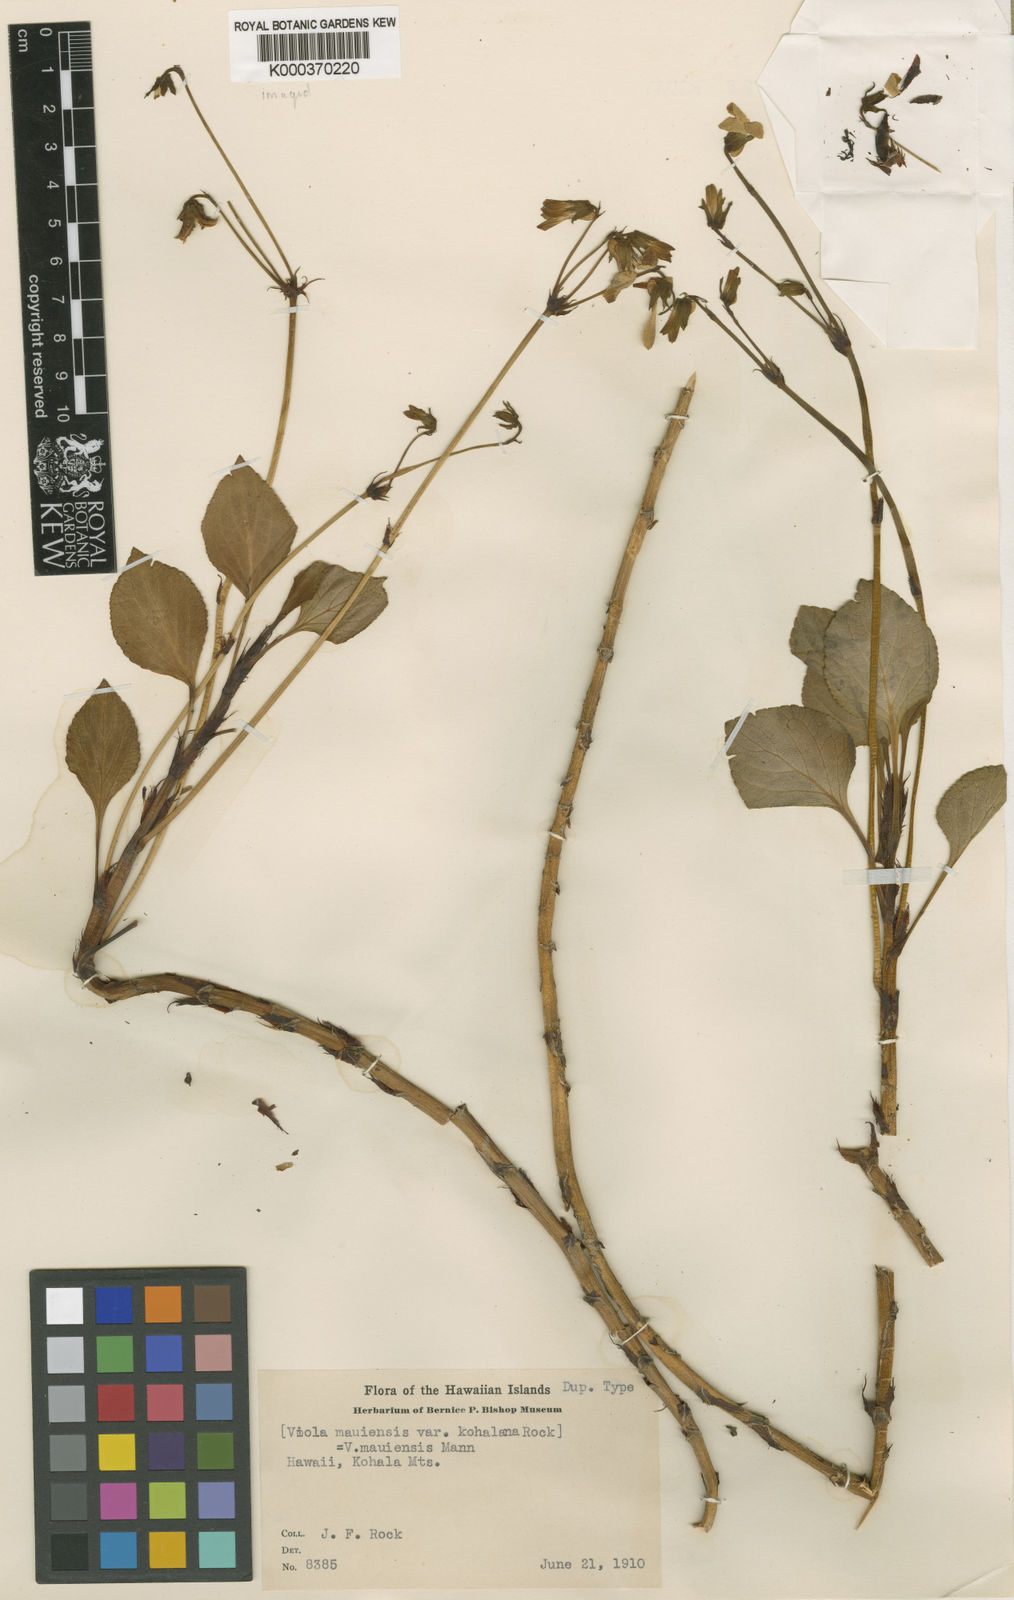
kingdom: Plantae
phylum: Tracheophyta
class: Magnoliopsida
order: Malpighiales
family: Violaceae
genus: Viola
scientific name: Viola maviensis
